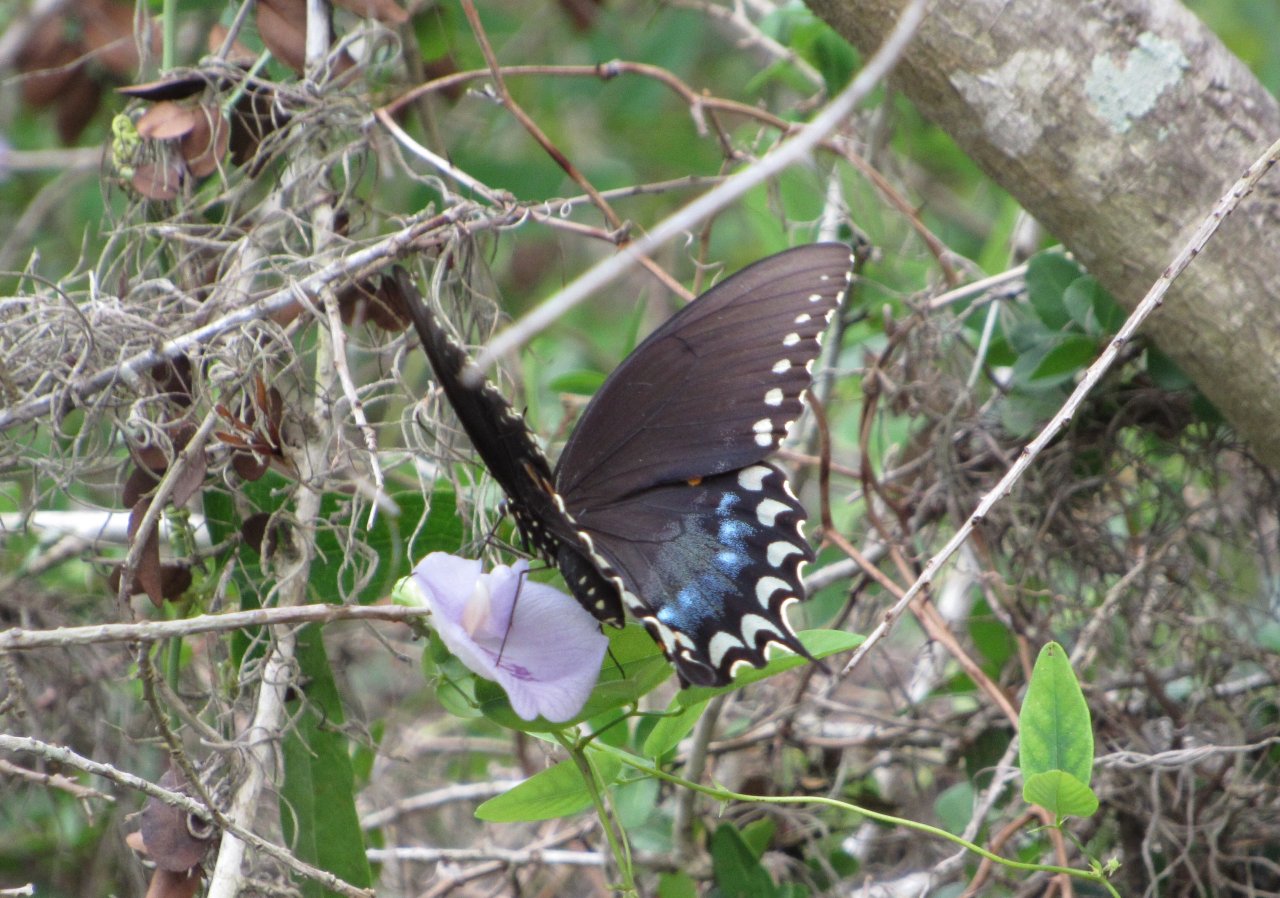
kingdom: Animalia
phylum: Arthropoda
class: Insecta
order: Lepidoptera
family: Papilionidae
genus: Pterourus
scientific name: Pterourus troilus
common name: Spicebush Swallowtail
